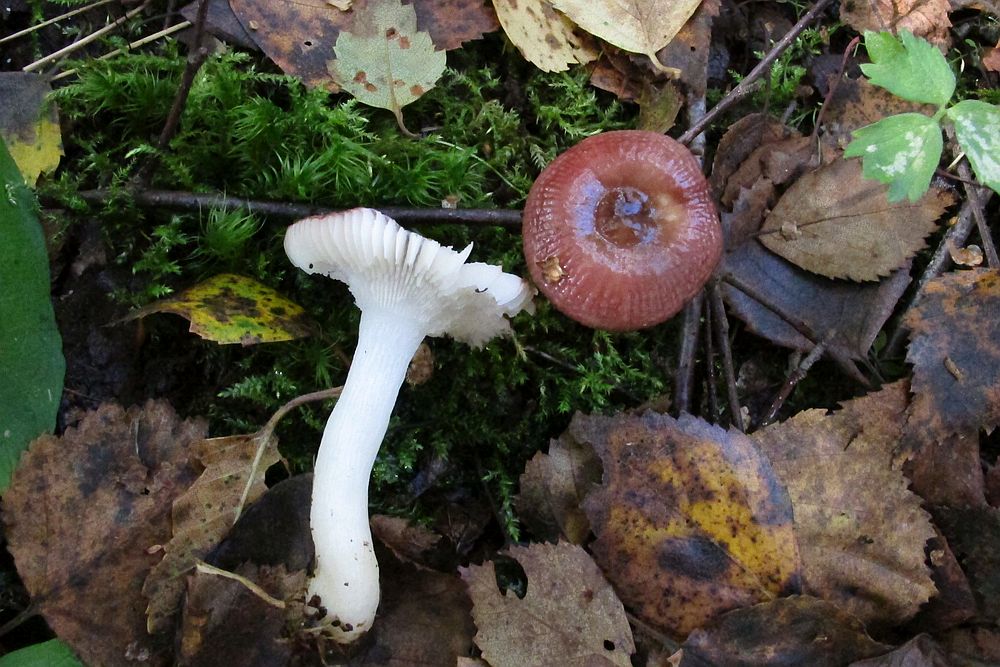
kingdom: Fungi
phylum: Basidiomycota
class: Agaricomycetes
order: Russulales
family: Russulaceae
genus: Russula
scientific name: Russula nitida
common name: året skørhat
